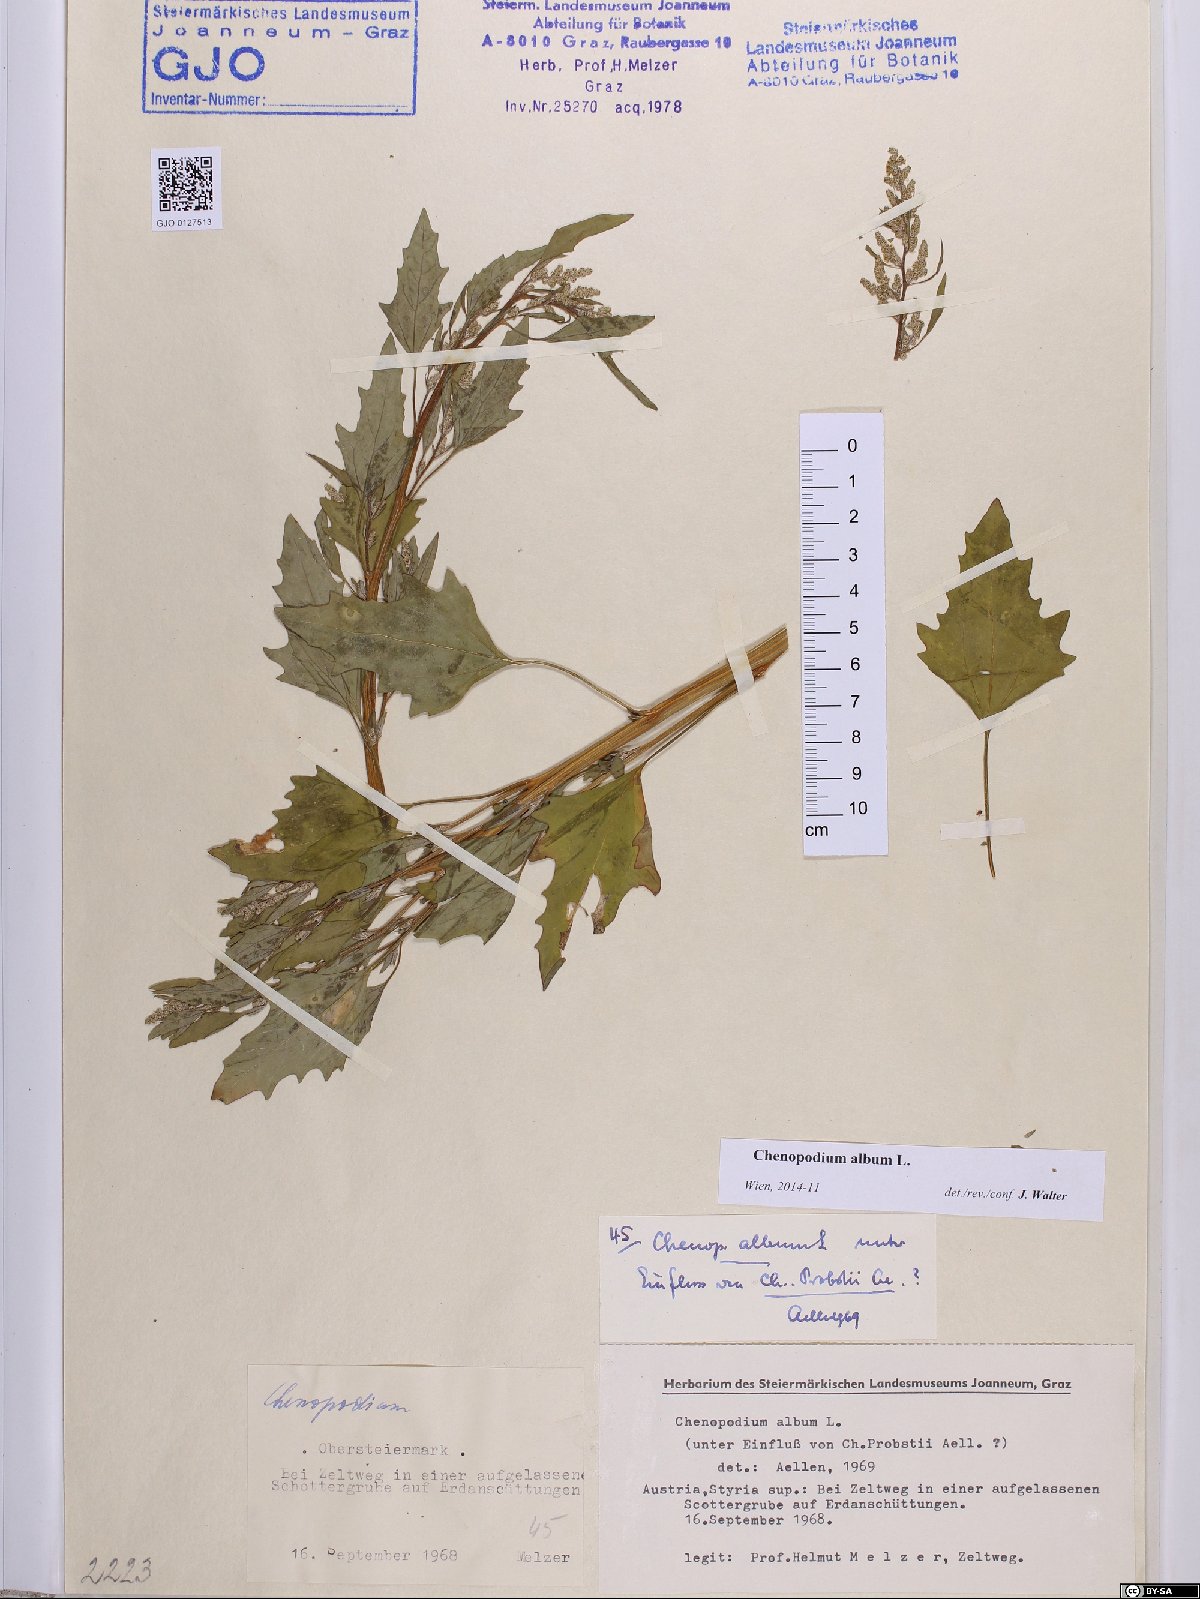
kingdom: Plantae
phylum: Tracheophyta
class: Magnoliopsida
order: Caryophyllales
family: Amaranthaceae
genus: Chenopodium
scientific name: Chenopodium album
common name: Fat-hen
